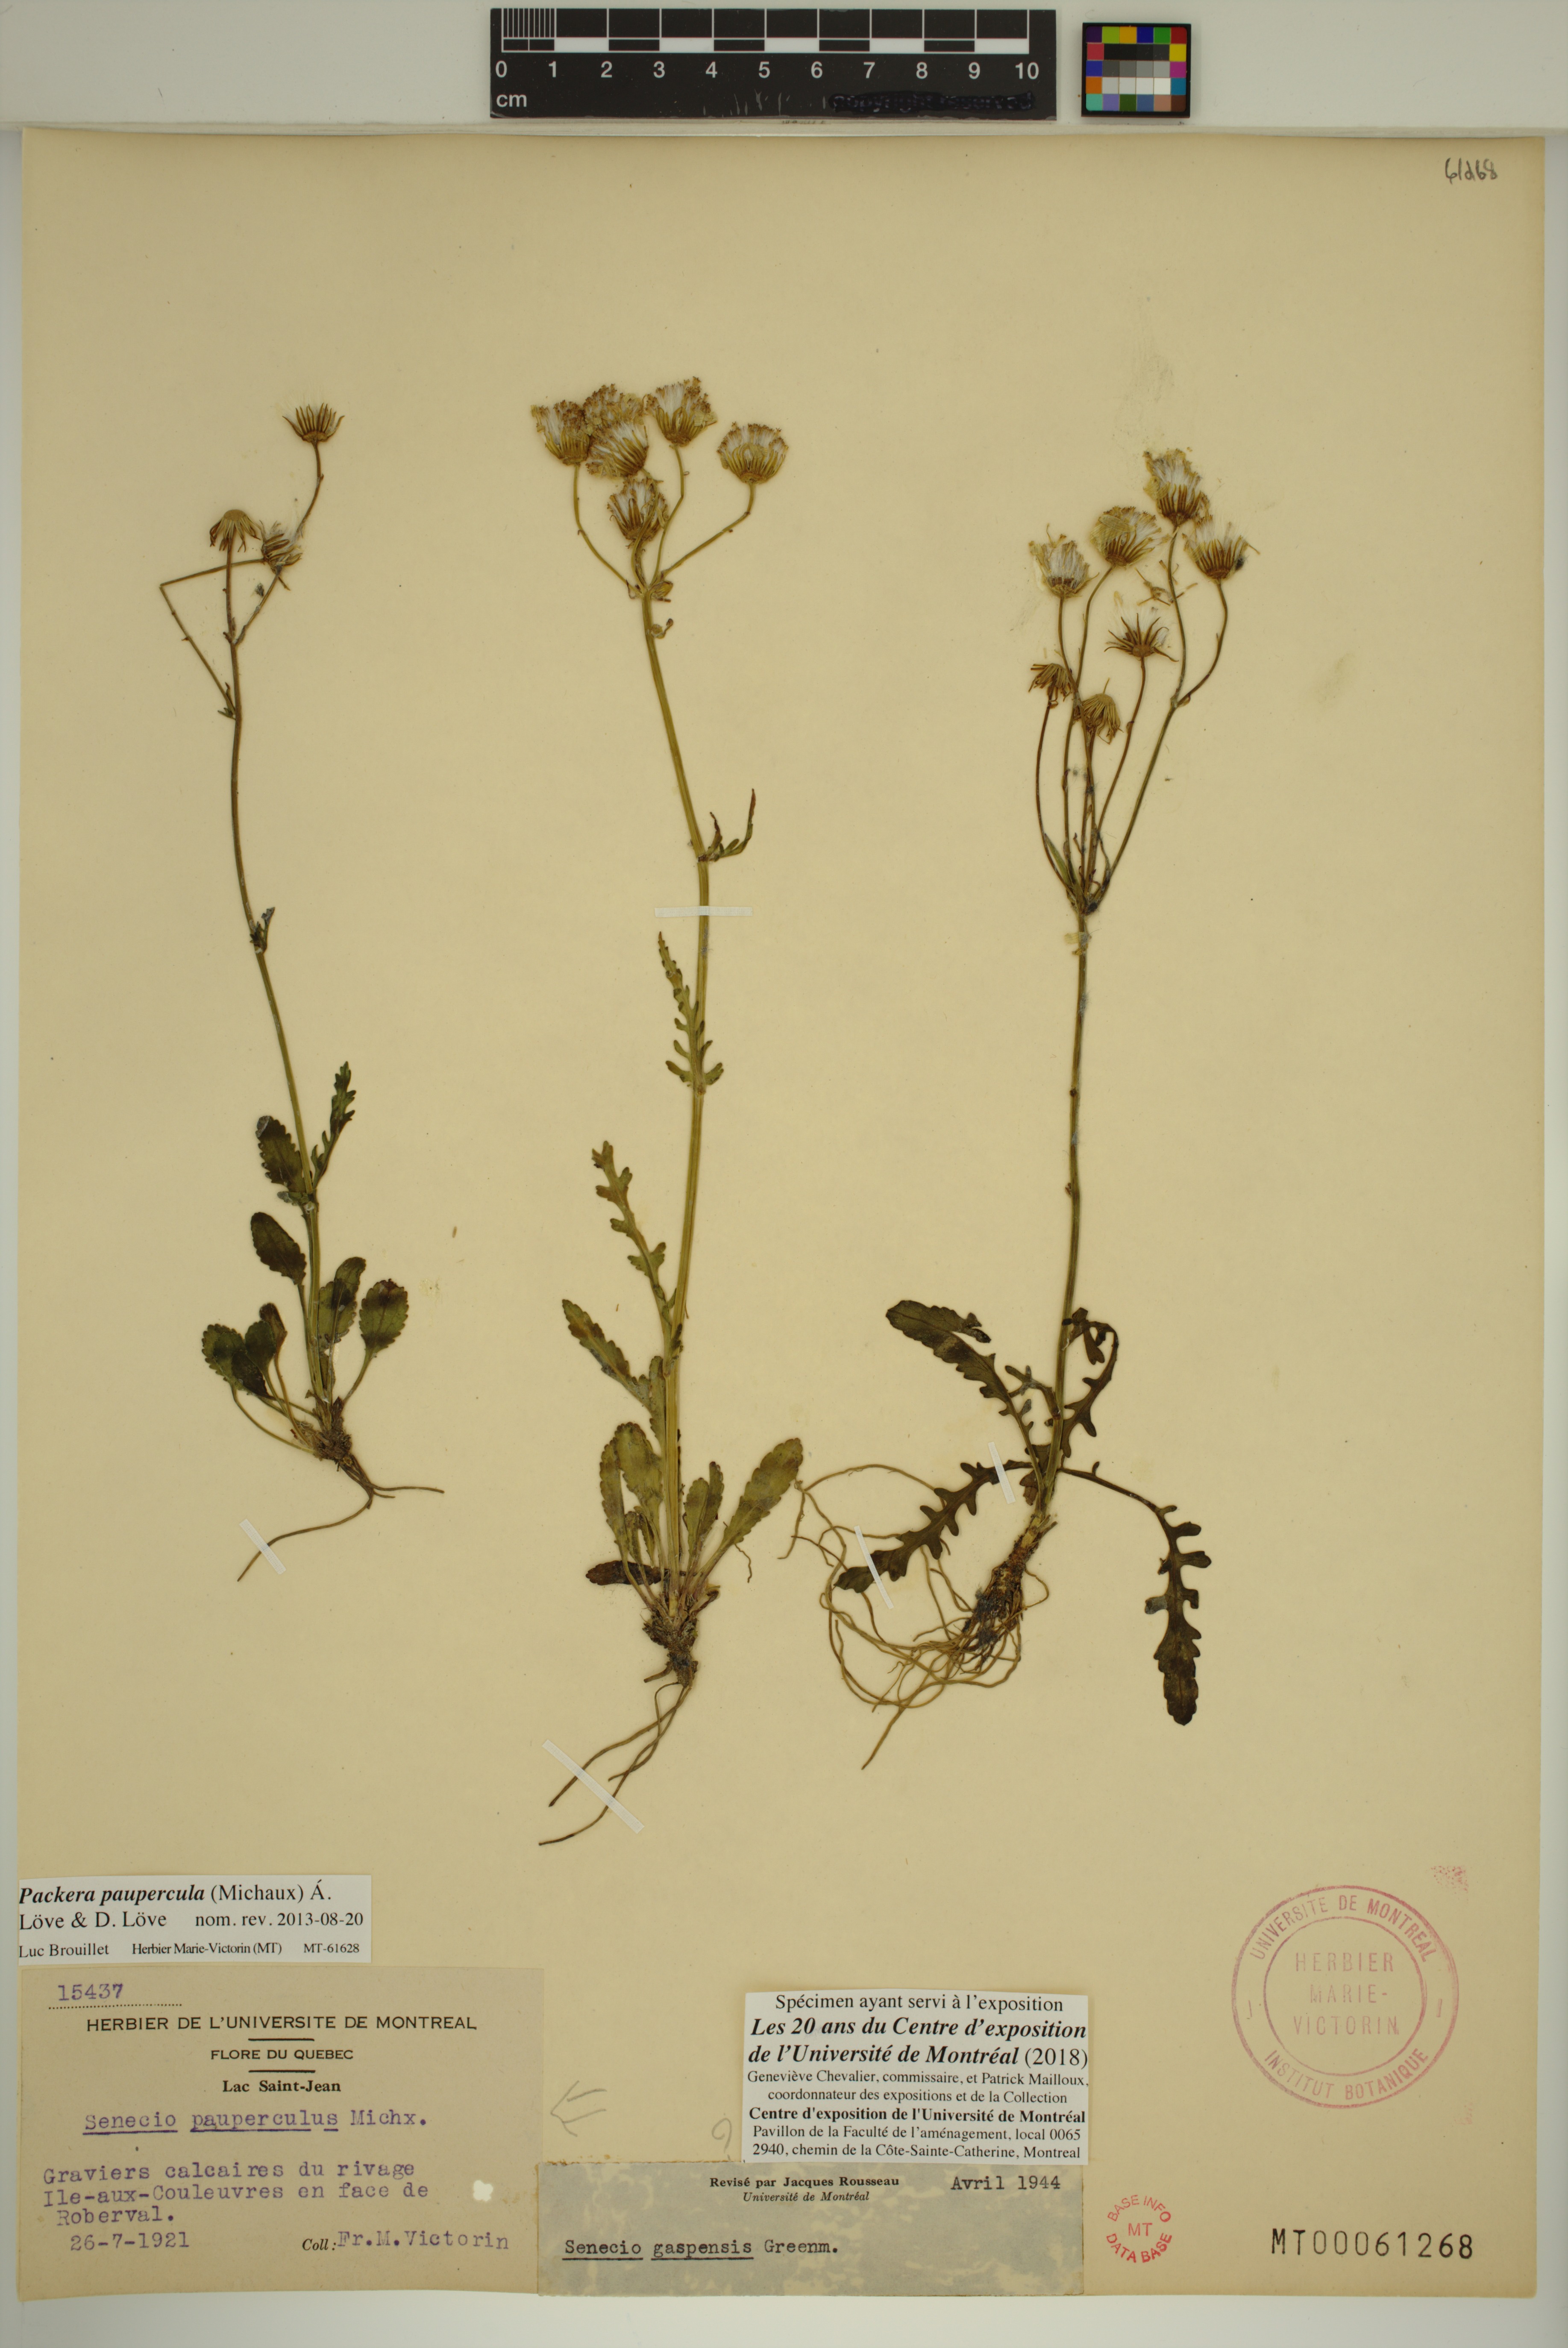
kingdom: Plantae
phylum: Tracheophyta
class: Magnoliopsida
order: Asterales
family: Asteraceae
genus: Packera
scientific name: Packera paupercula
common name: Balsam groundsel
